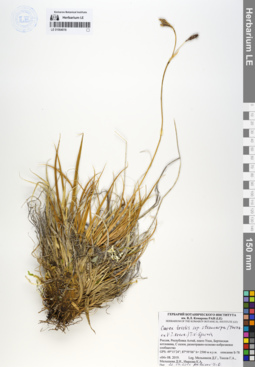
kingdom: Plantae
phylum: Tracheophyta
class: Liliopsida
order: Poales
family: Cyperaceae
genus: Carex
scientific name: Carex stenocarpa
